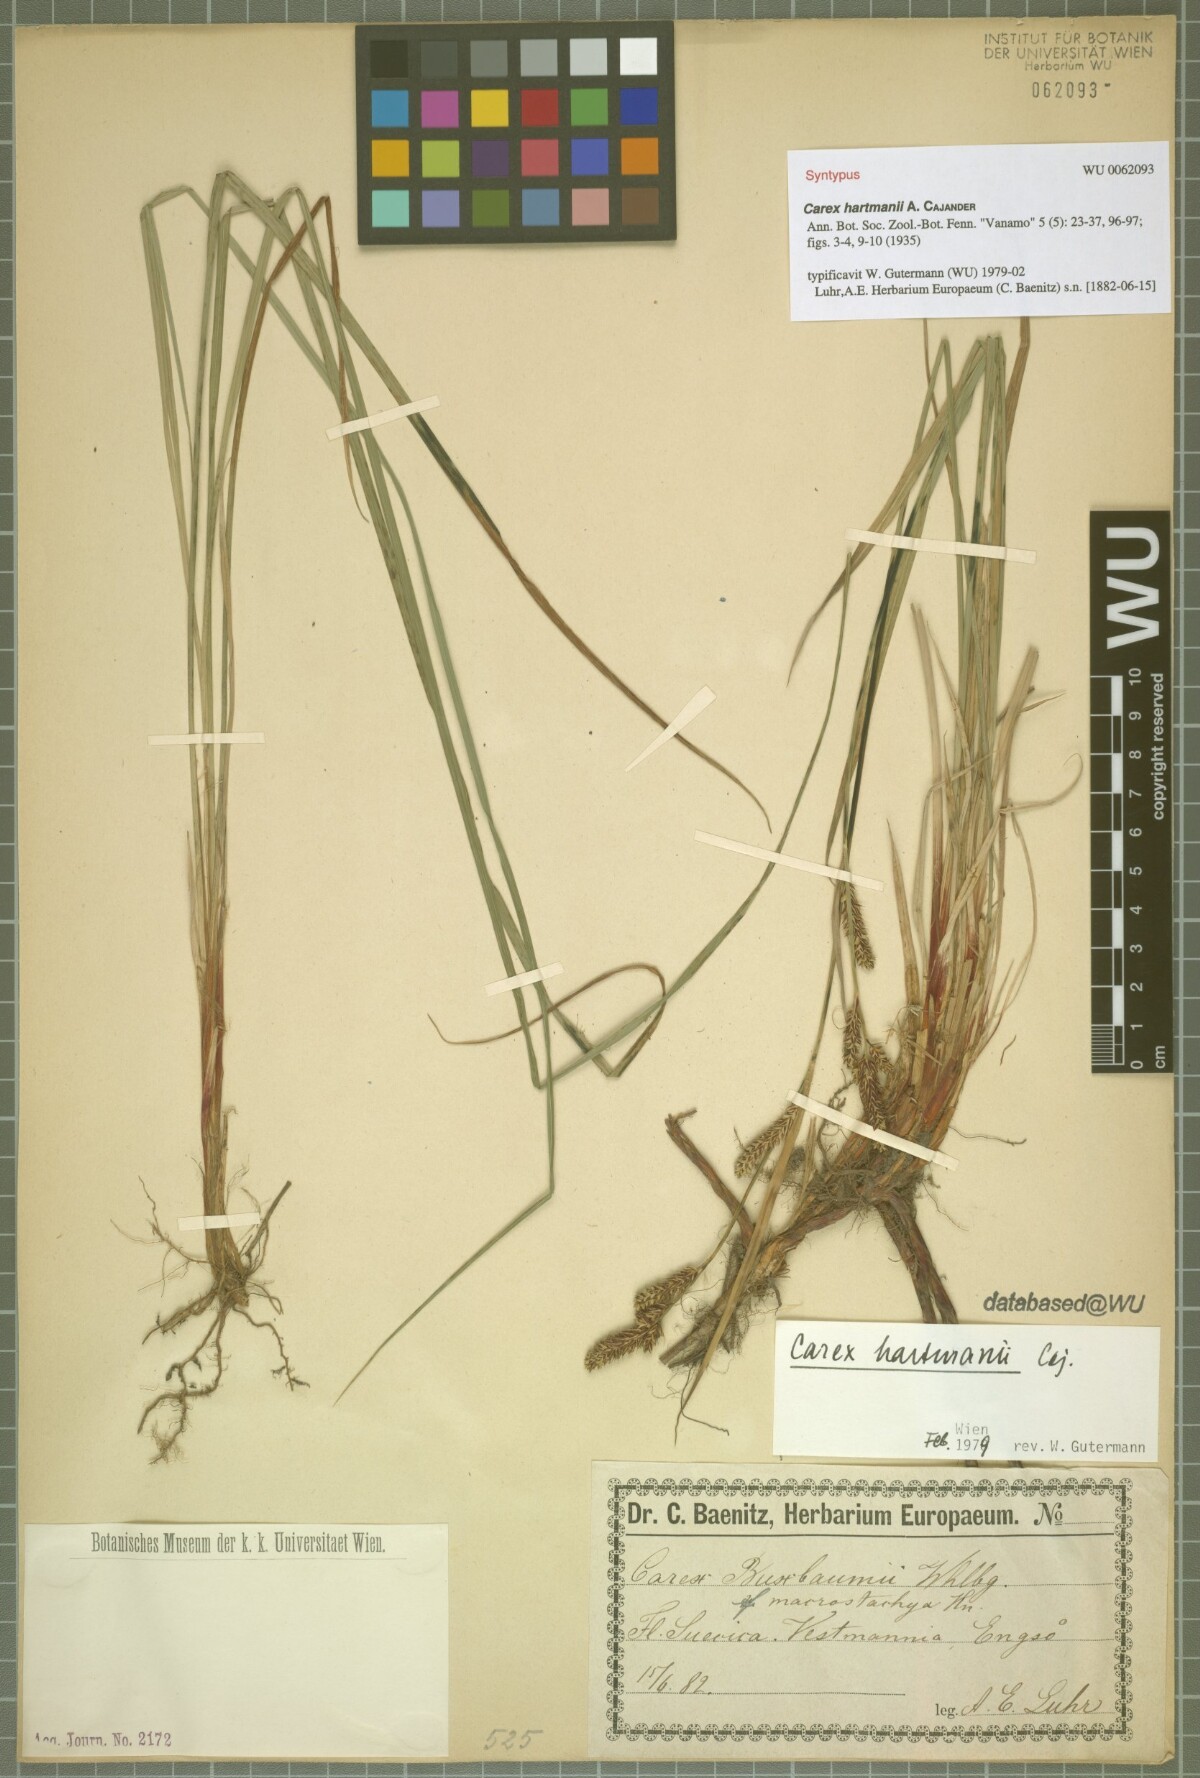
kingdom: Plantae
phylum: Tracheophyta
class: Liliopsida
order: Poales
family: Cyperaceae
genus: Carex
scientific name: Carex hartmaniorum
